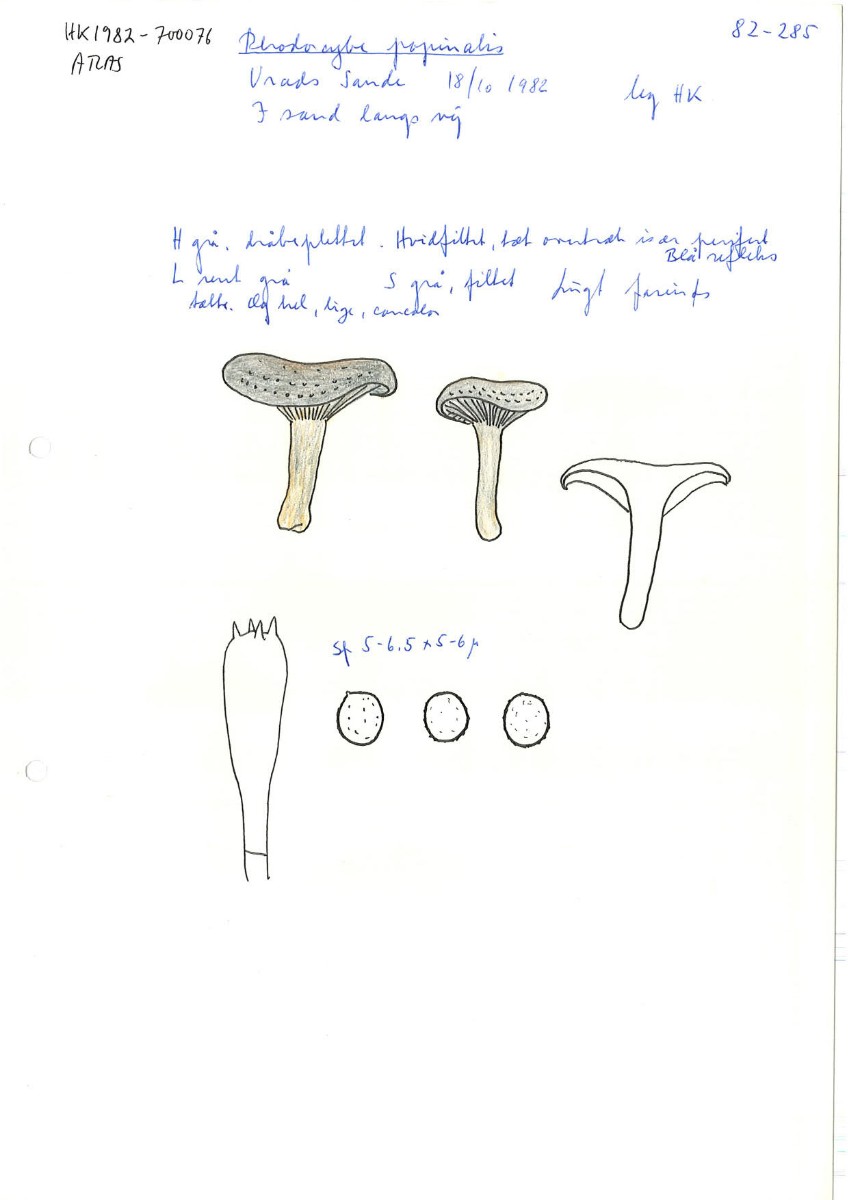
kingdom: Fungi
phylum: Basidiomycota
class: Agaricomycetes
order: Agaricales
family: Tricholomataceae
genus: Lulesia
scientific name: Lulesia
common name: sortnende troldhat
